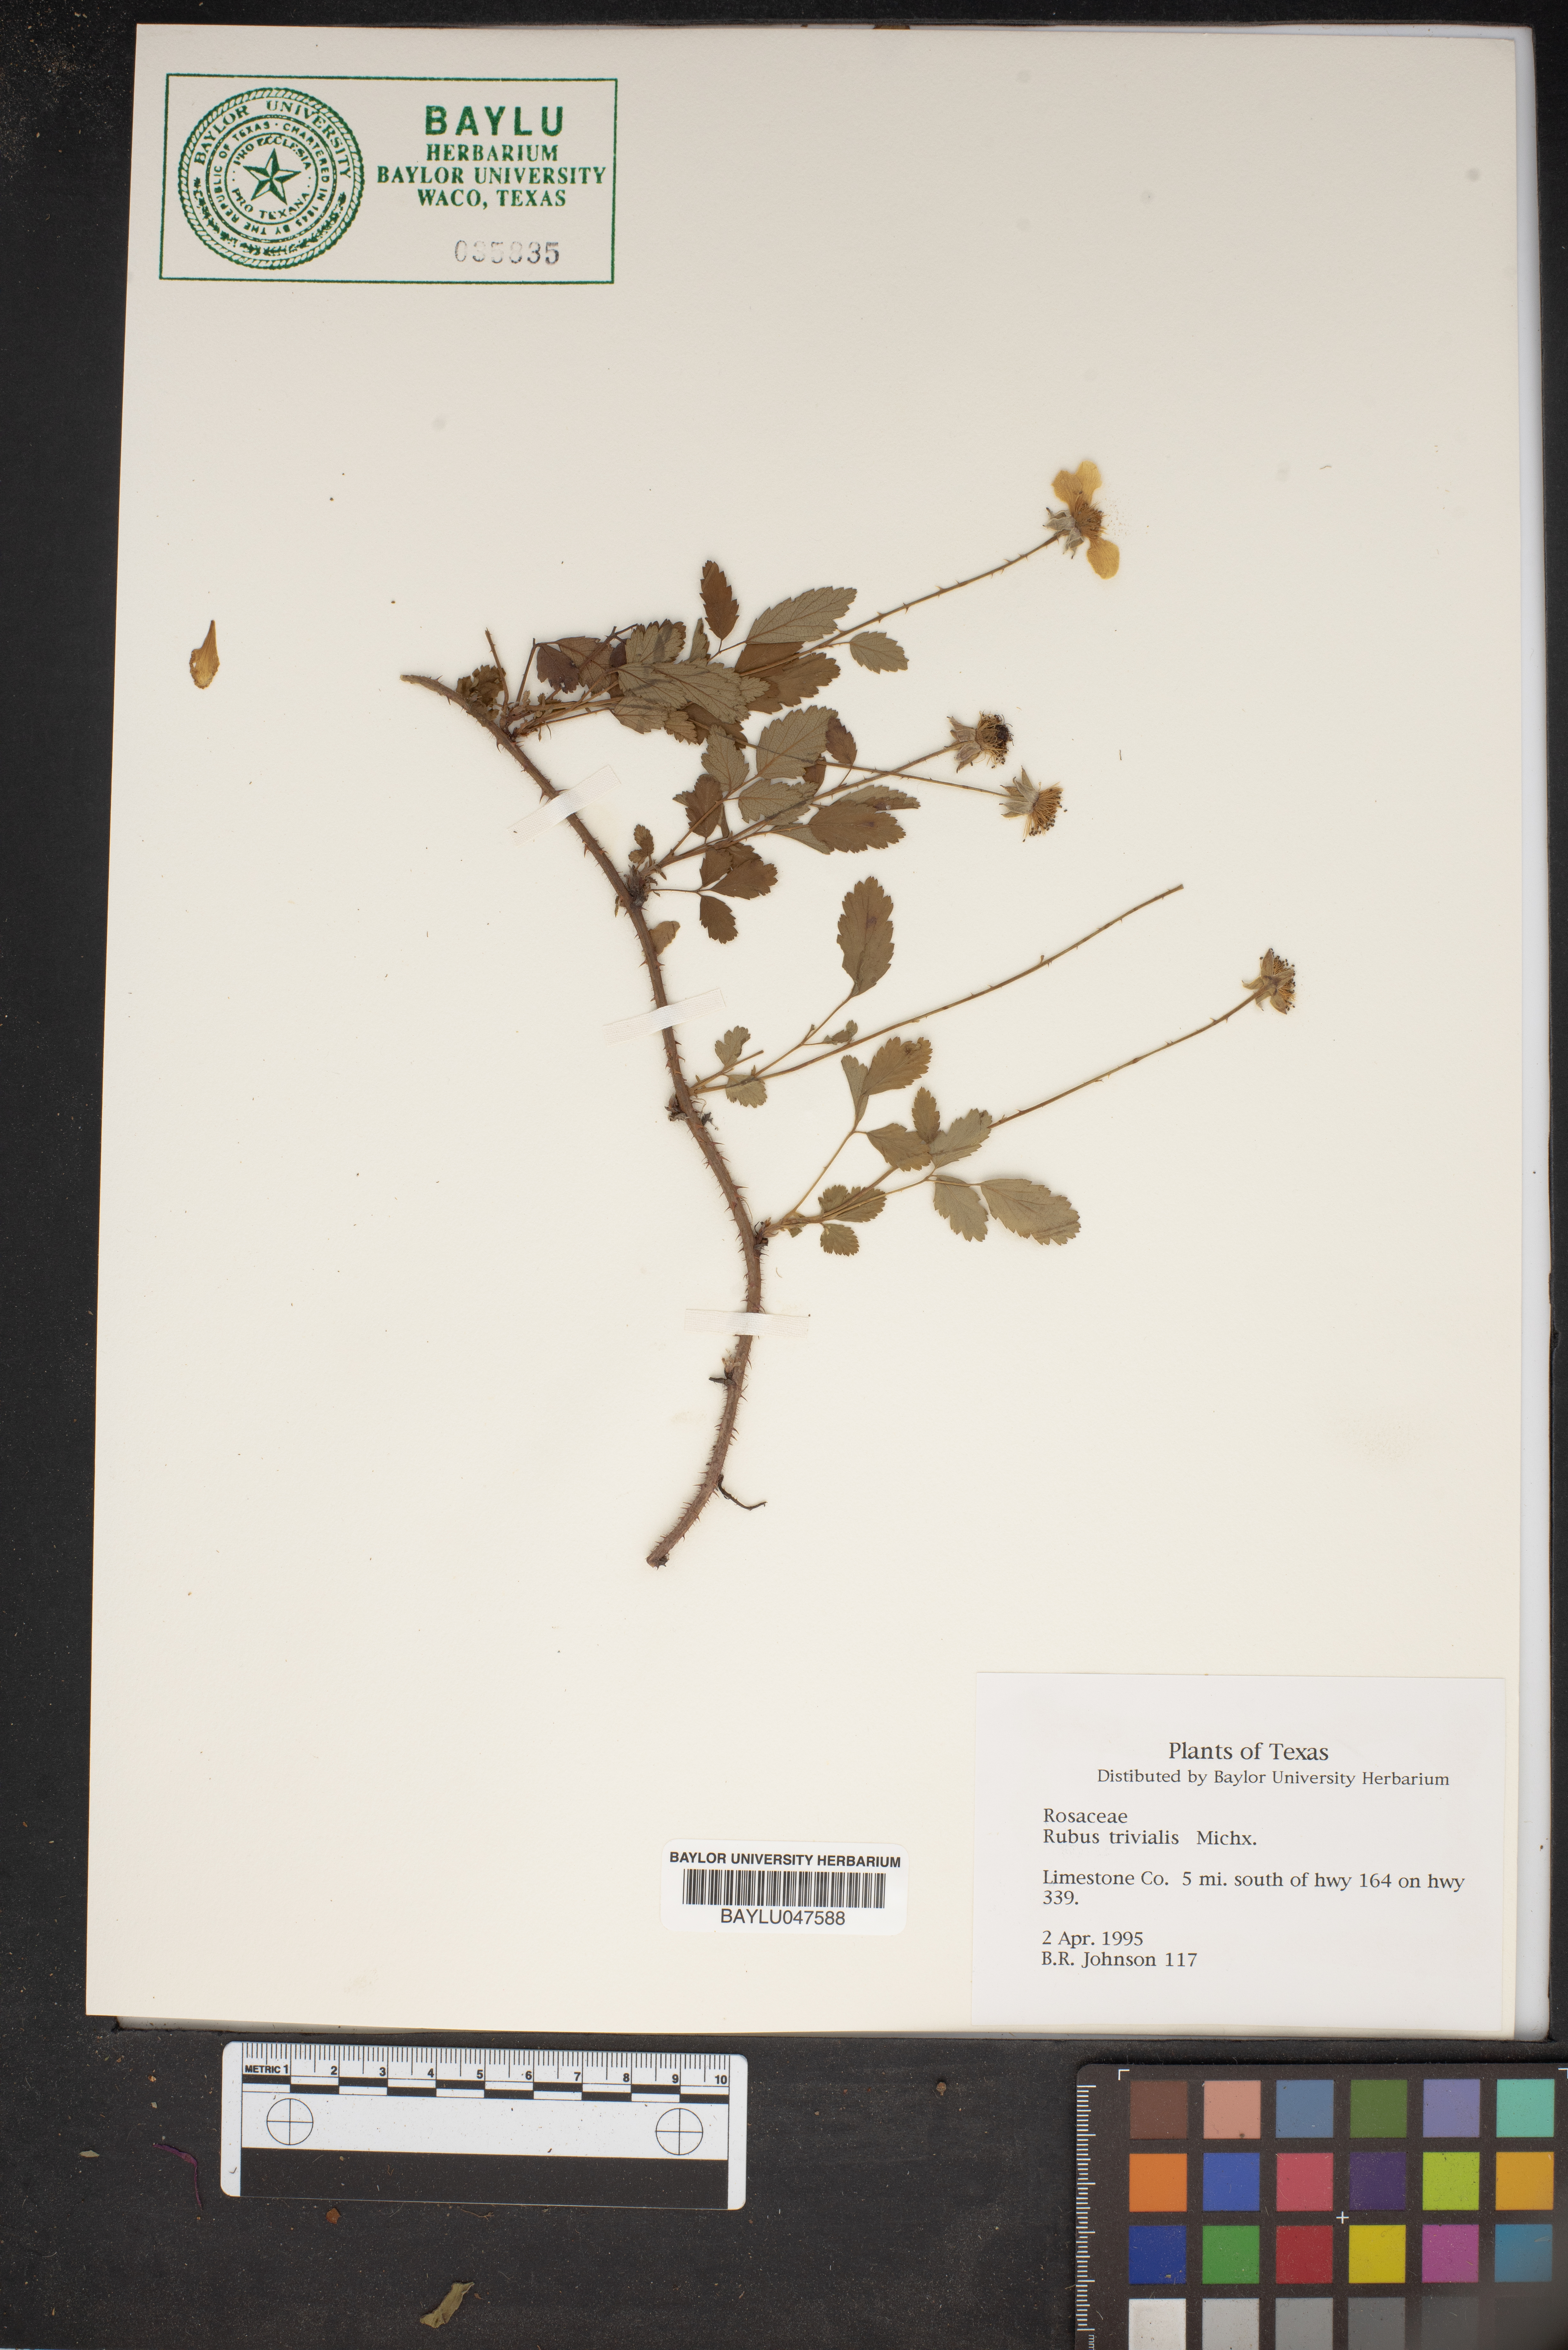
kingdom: Plantae
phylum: Tracheophyta
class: Magnoliopsida
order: Rosales
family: Rosaceae
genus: Rubus
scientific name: Rubus trivialis
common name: Southern dewberry
